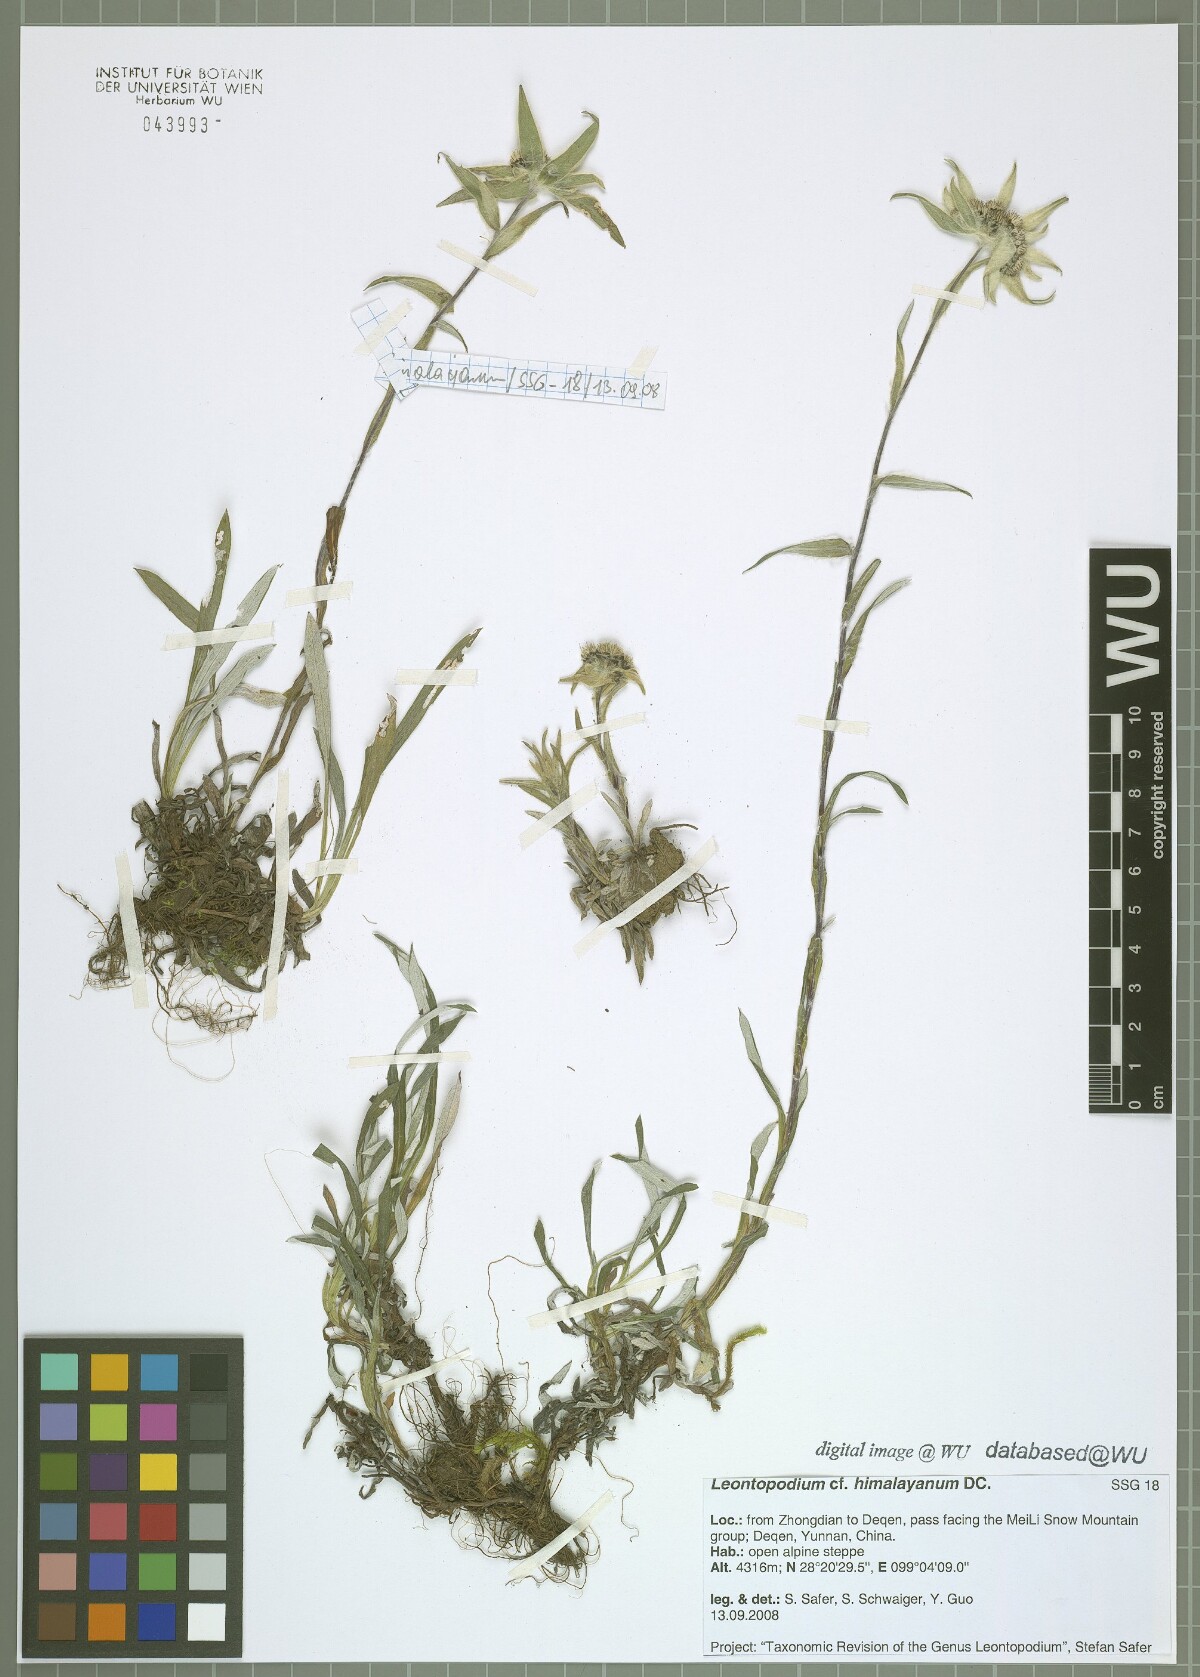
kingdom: Plantae
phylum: Tracheophyta
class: Magnoliopsida
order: Asterales
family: Asteraceae
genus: Leontopodium
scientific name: Leontopodium himalayanum
